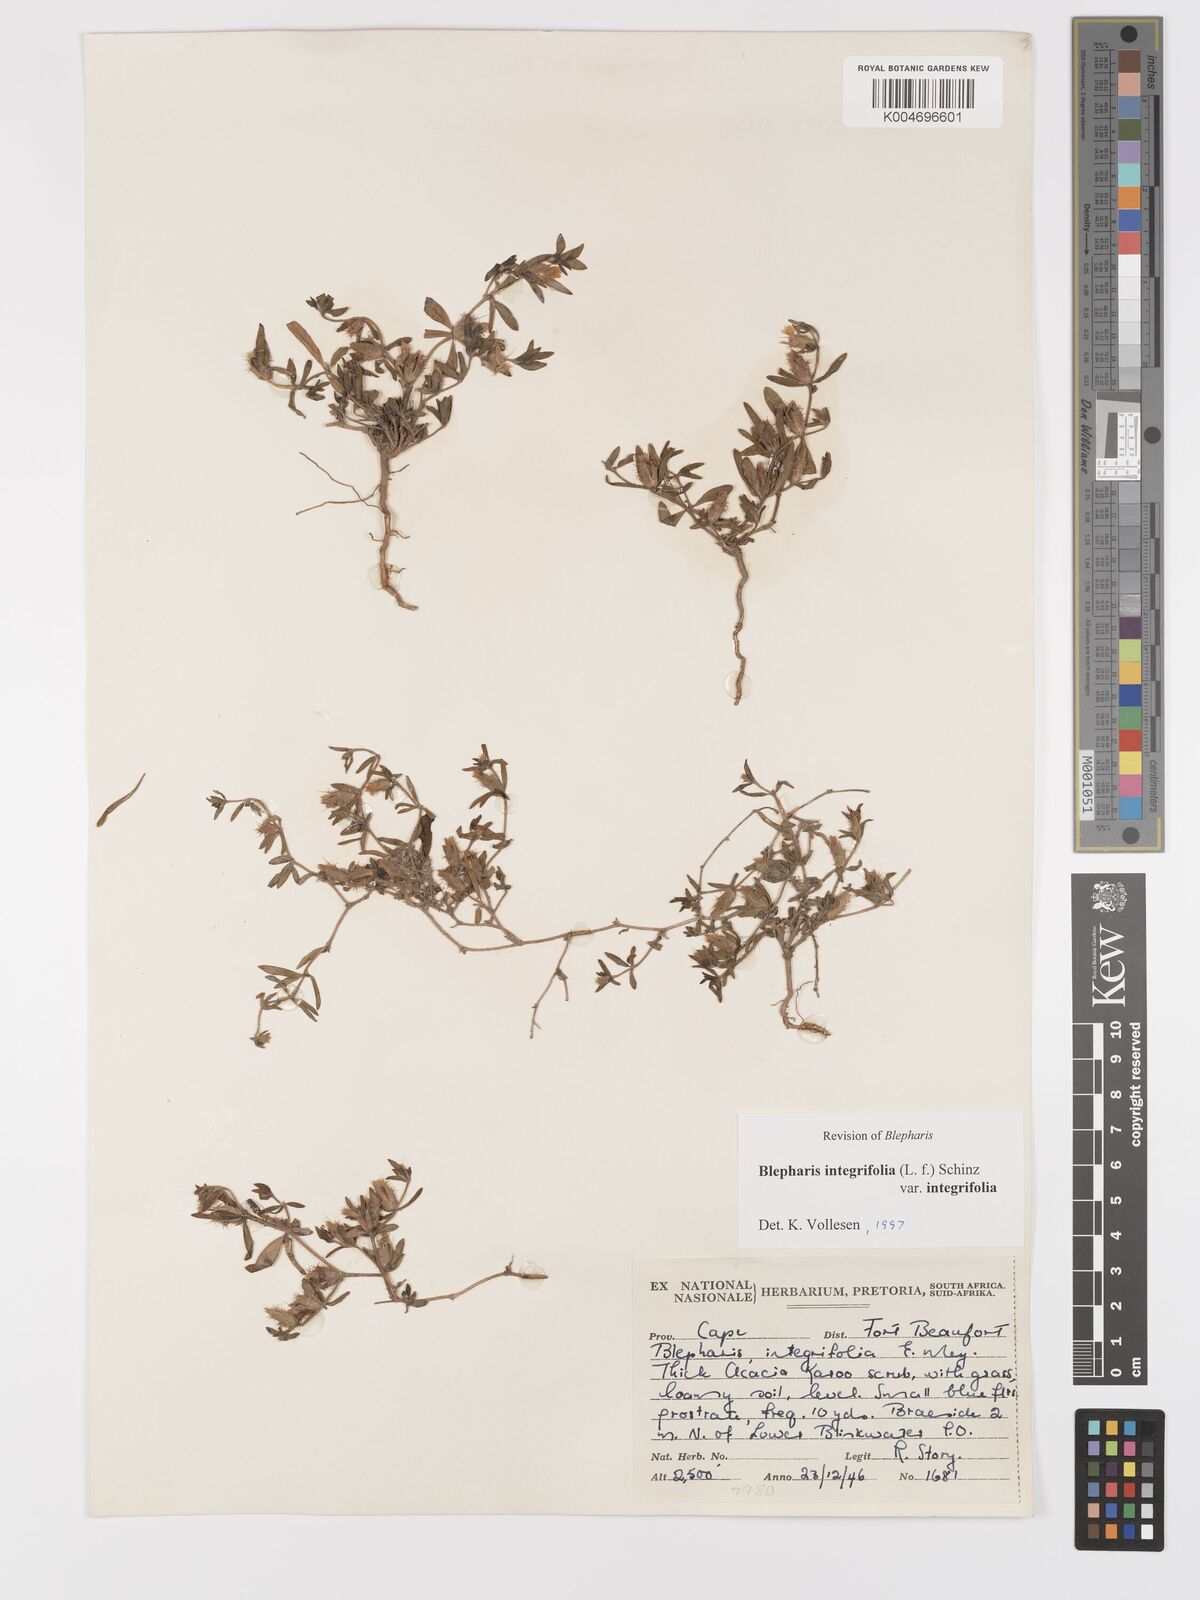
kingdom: Plantae
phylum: Tracheophyta
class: Magnoliopsida
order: Lamiales
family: Acanthaceae
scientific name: Acanthaceae
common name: Acanthaceae
